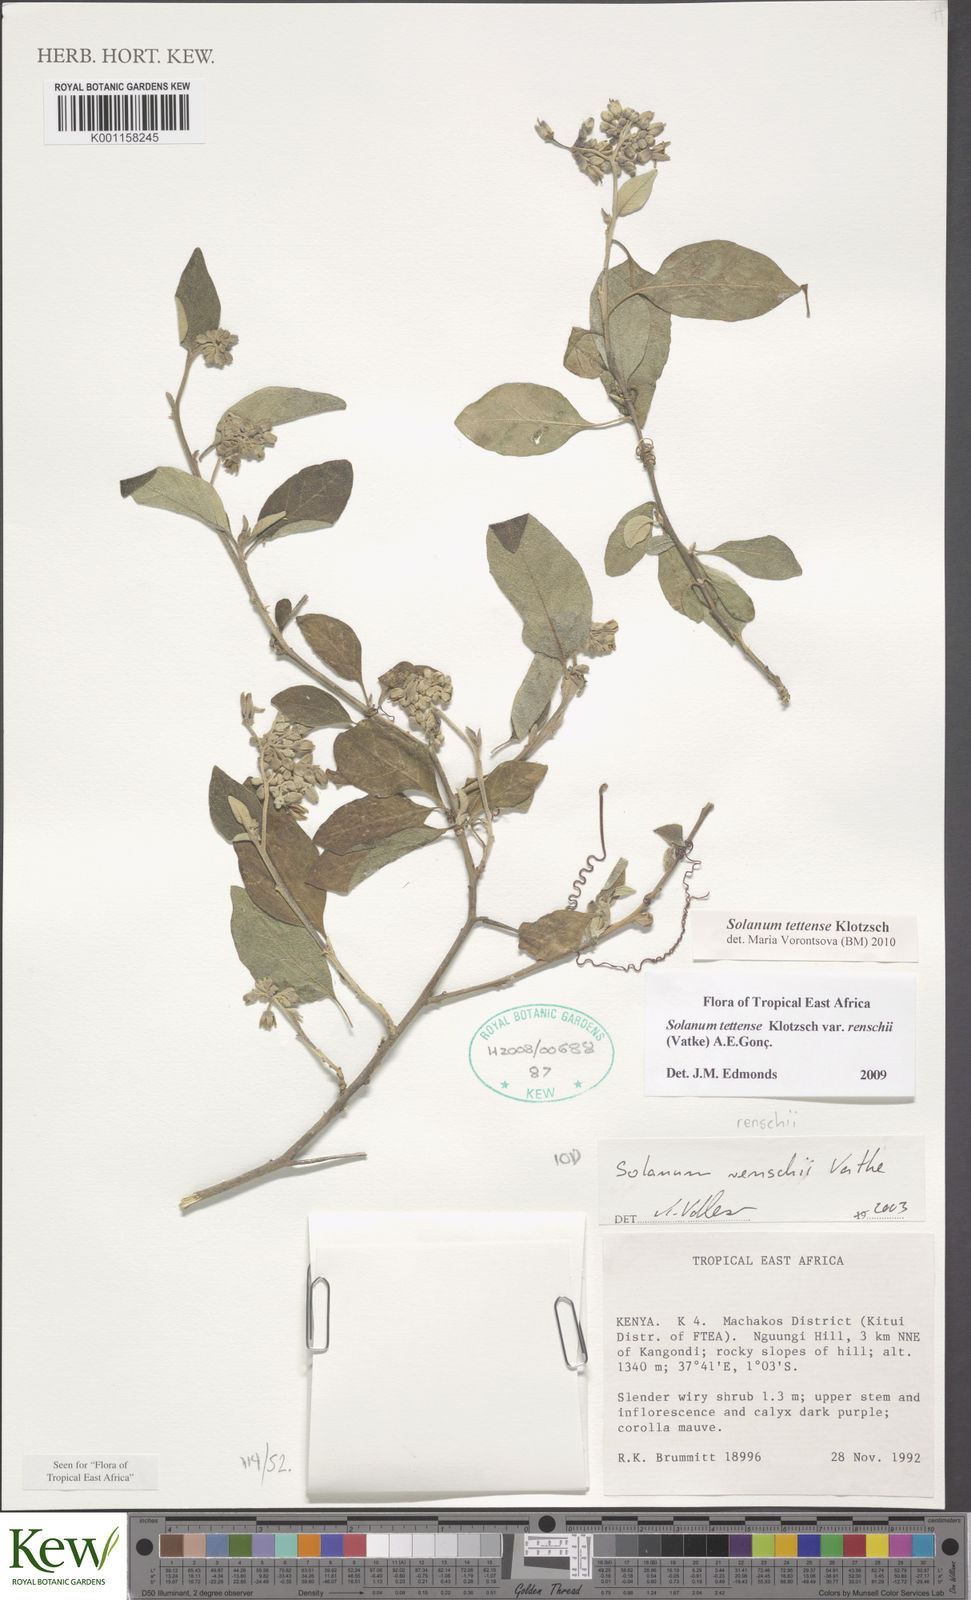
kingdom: Plantae
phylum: Tracheophyta
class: Magnoliopsida
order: Solanales
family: Solanaceae
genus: Solanum
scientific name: Solanum tettense
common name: Mozambique bitter apple
